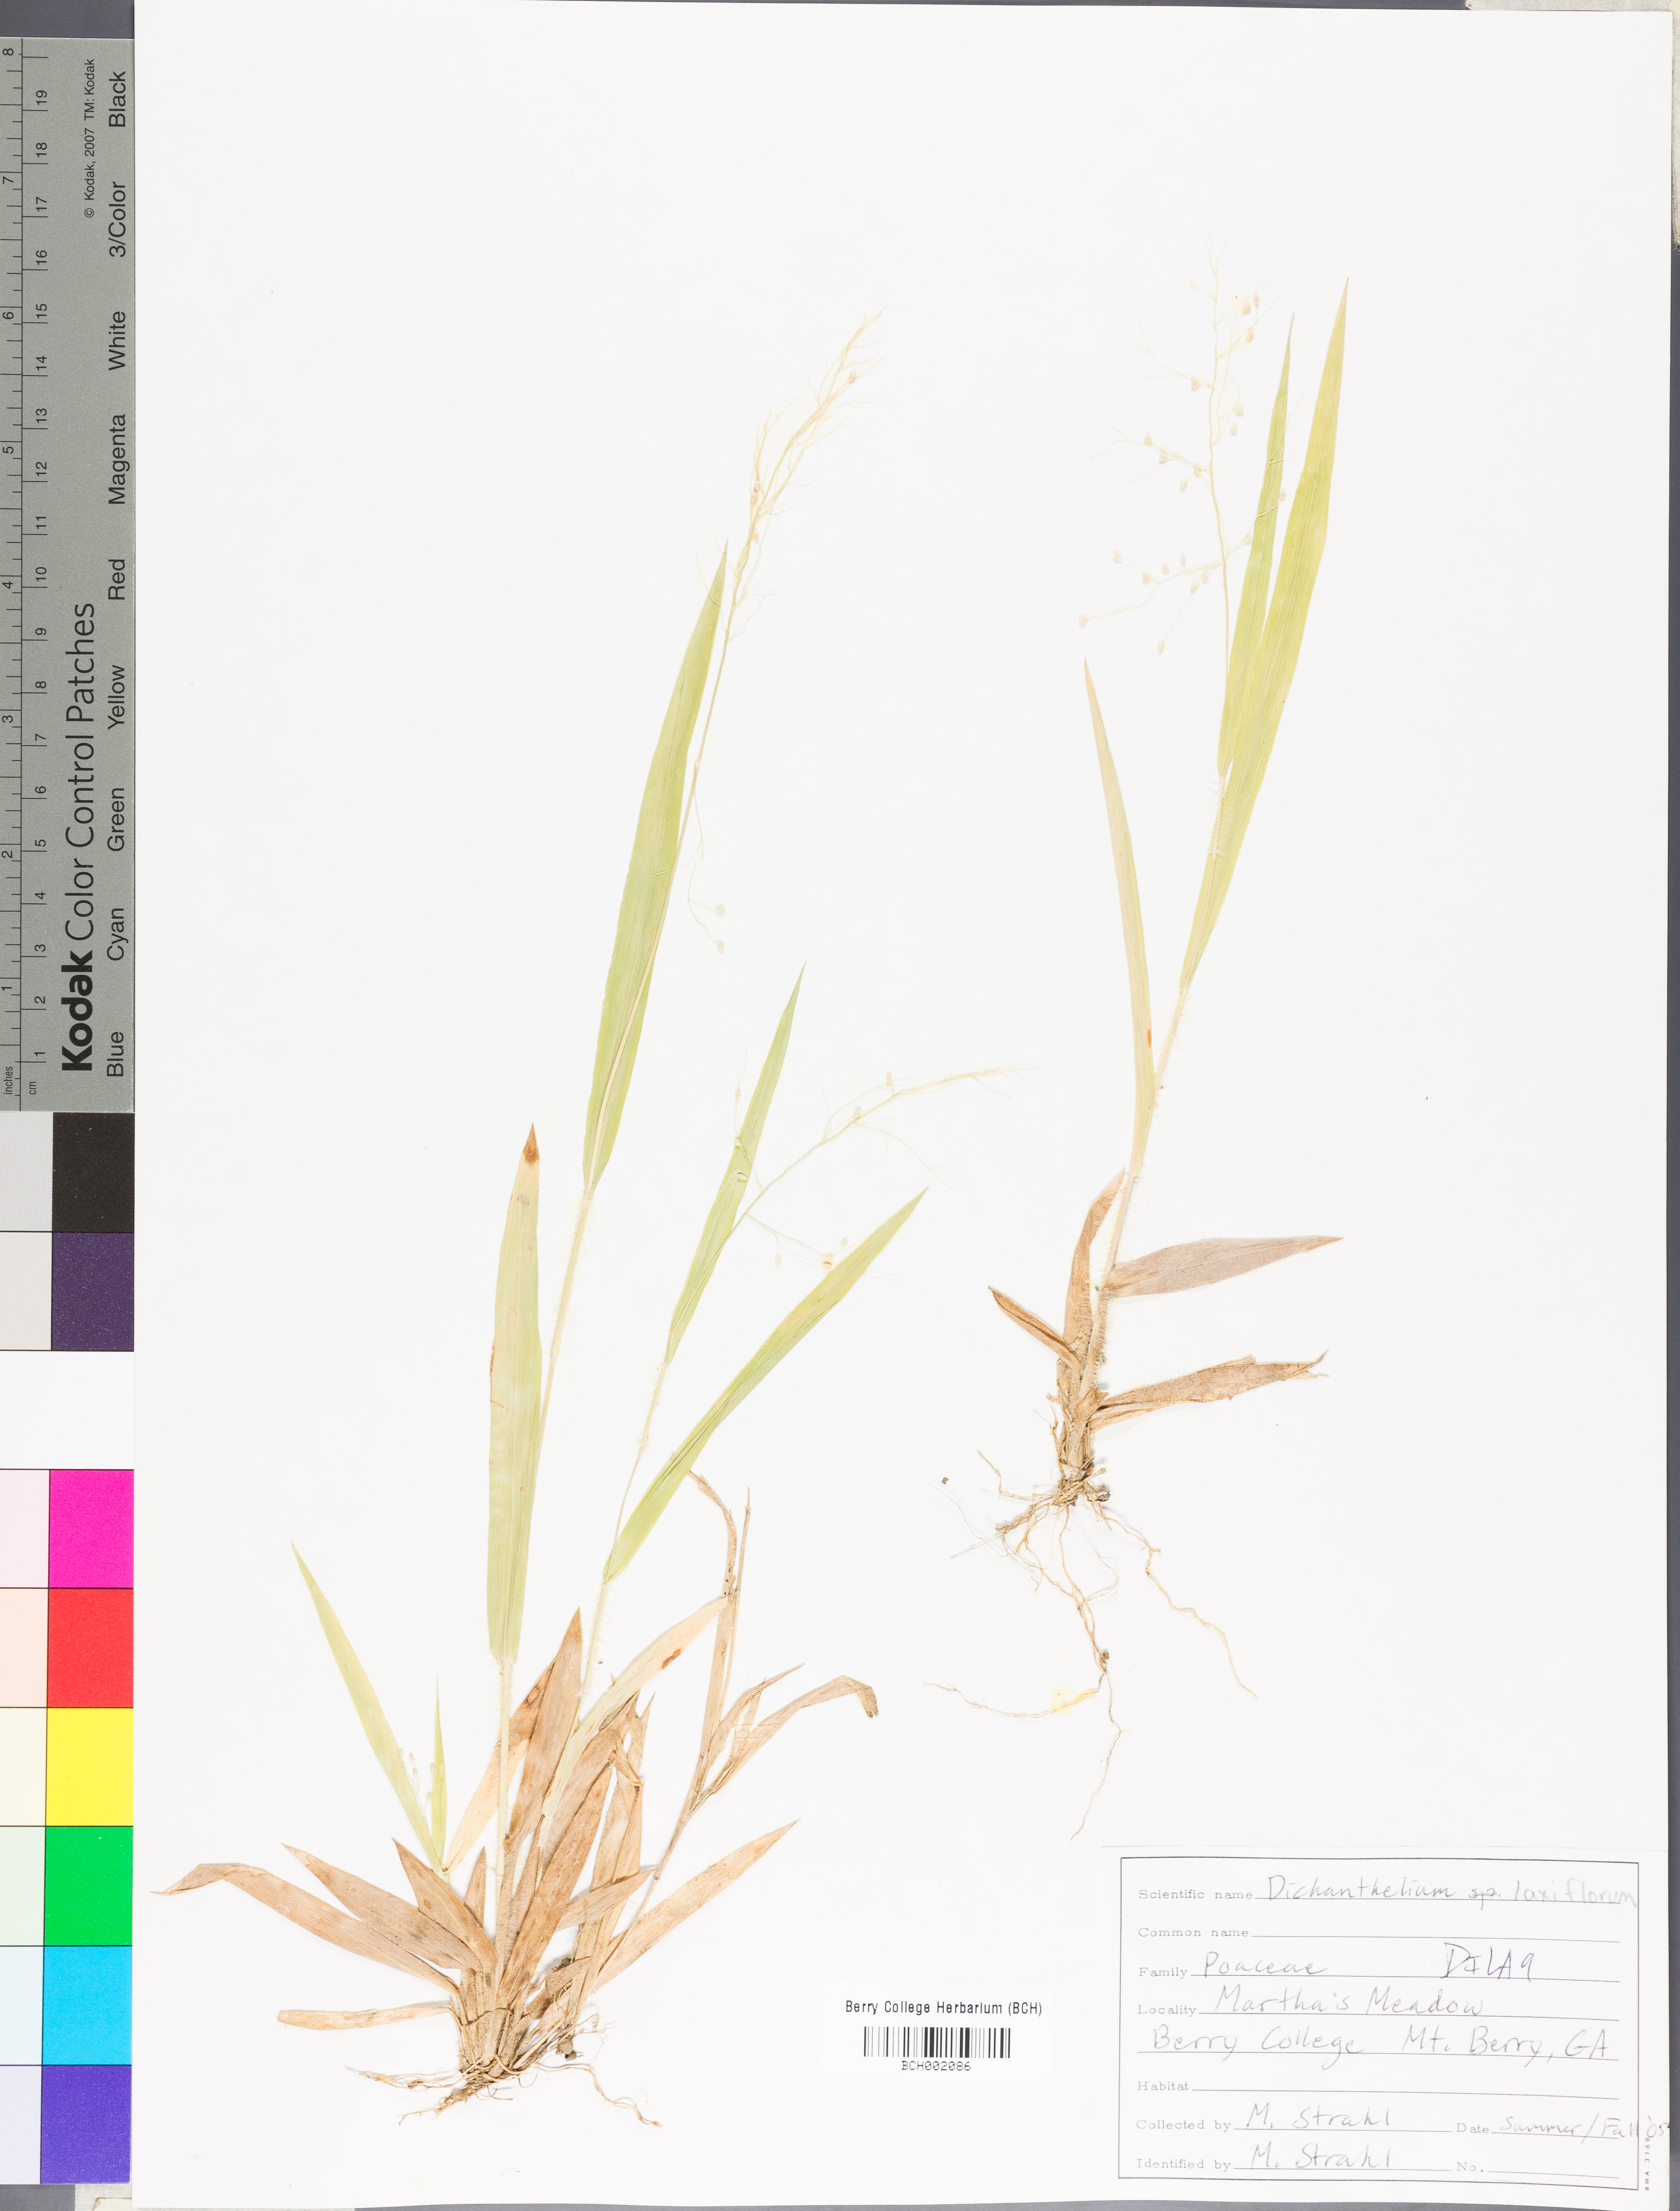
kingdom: Plantae
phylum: Tracheophyta
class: Liliopsida
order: Poales
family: Poaceae
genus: Dichanthelium
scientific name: Dichanthelium laxiflorum
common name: Soft-tuft panic grass
